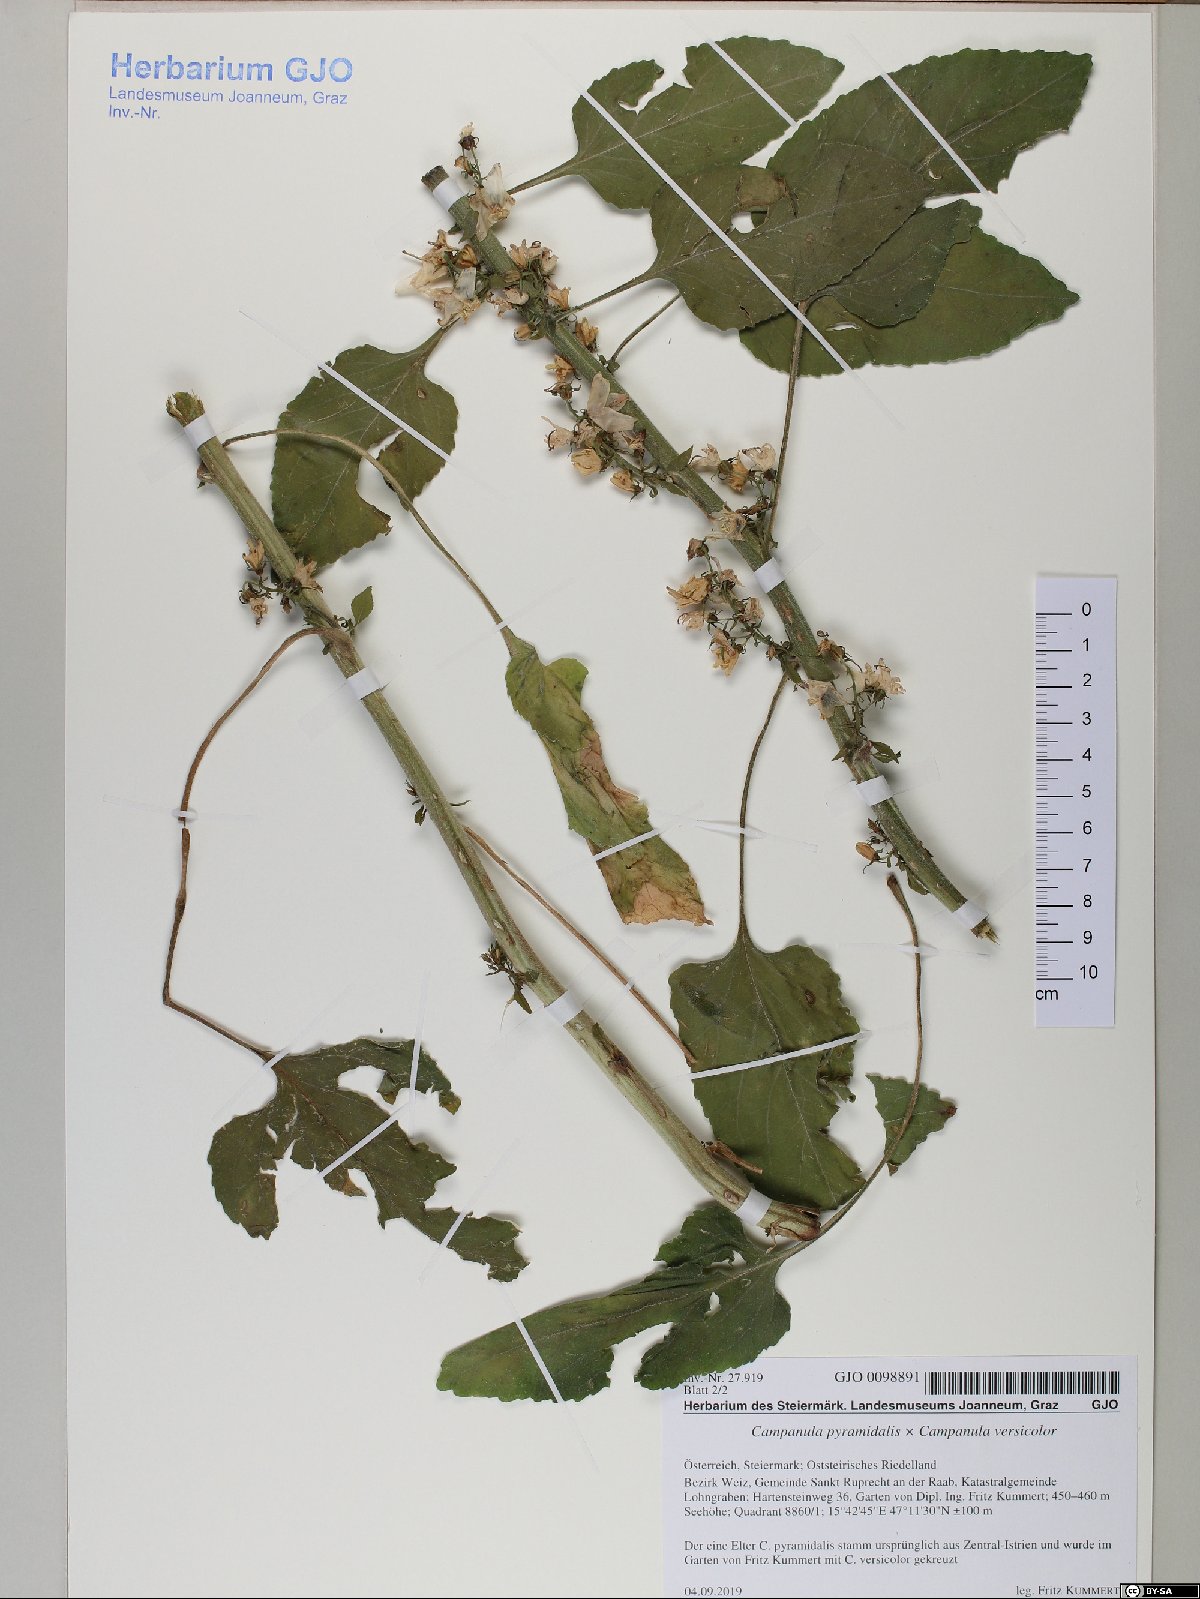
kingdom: Plantae
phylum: Tracheophyta
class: Magnoliopsida
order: Asterales
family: Campanulaceae
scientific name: Campanulaceae
